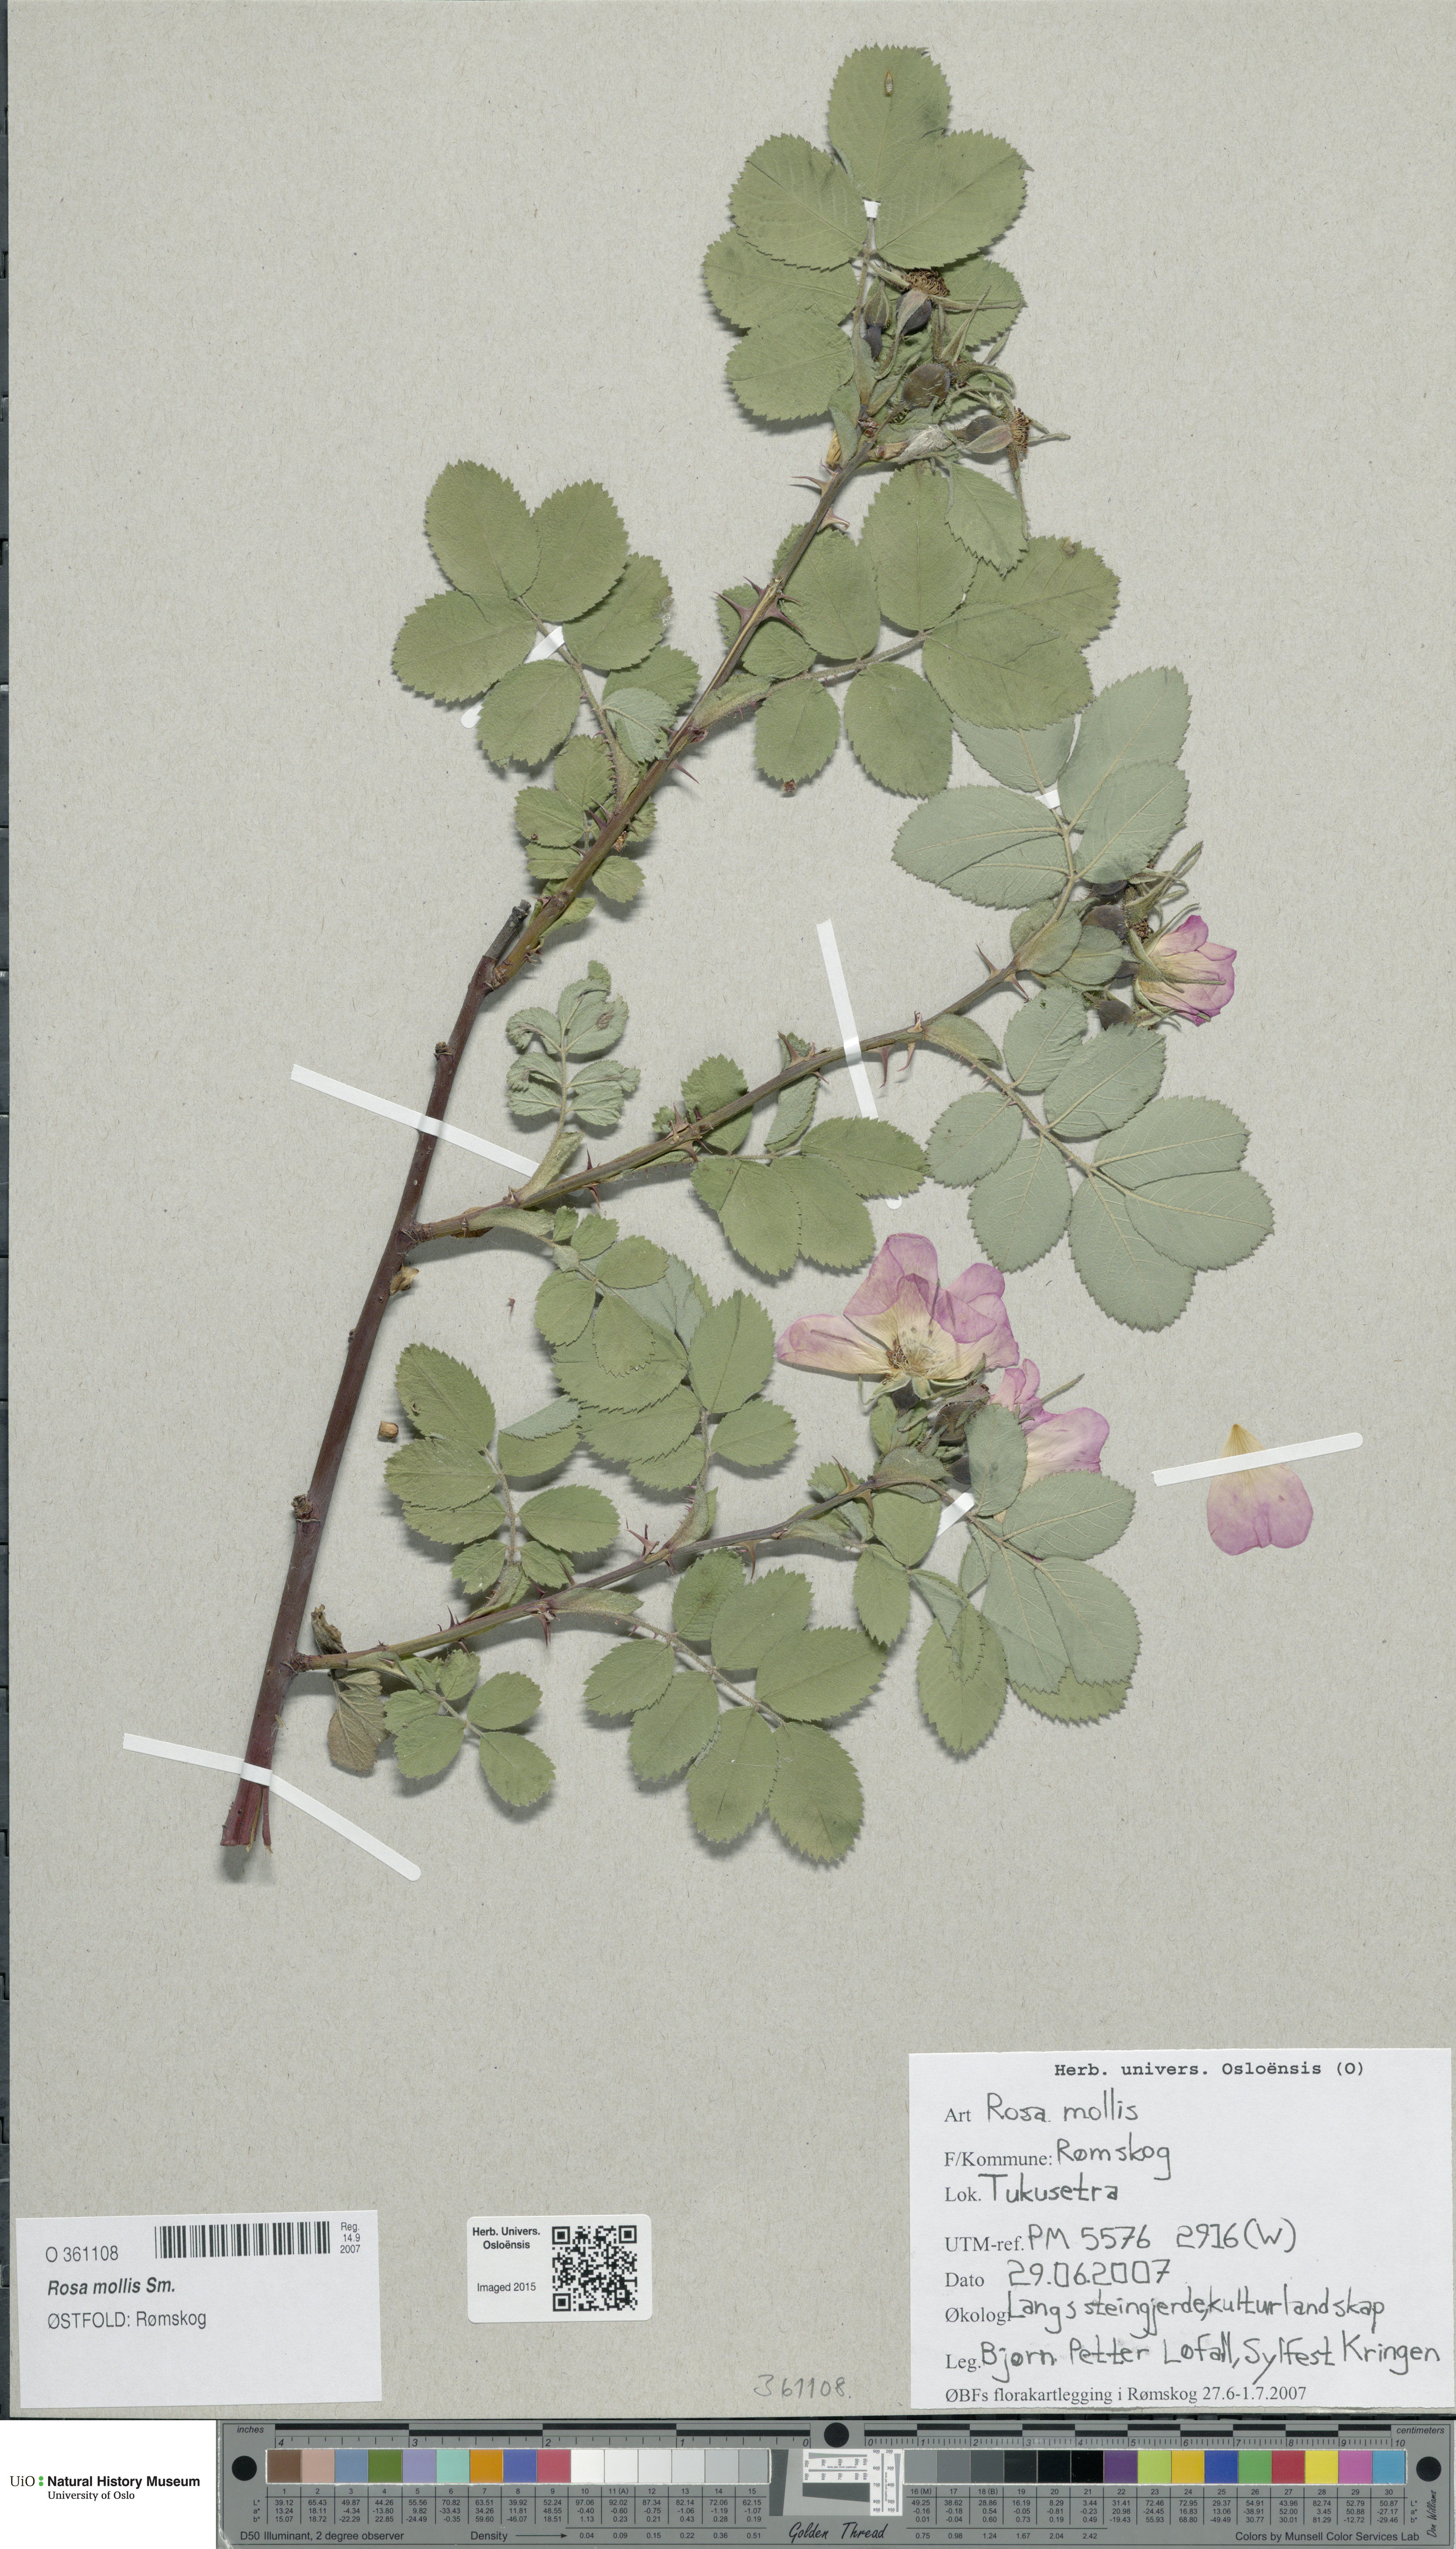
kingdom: Plantae
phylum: Tracheophyta
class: Magnoliopsida
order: Rosales
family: Rosaceae
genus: Rosa
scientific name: Rosa mollis
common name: Rose
